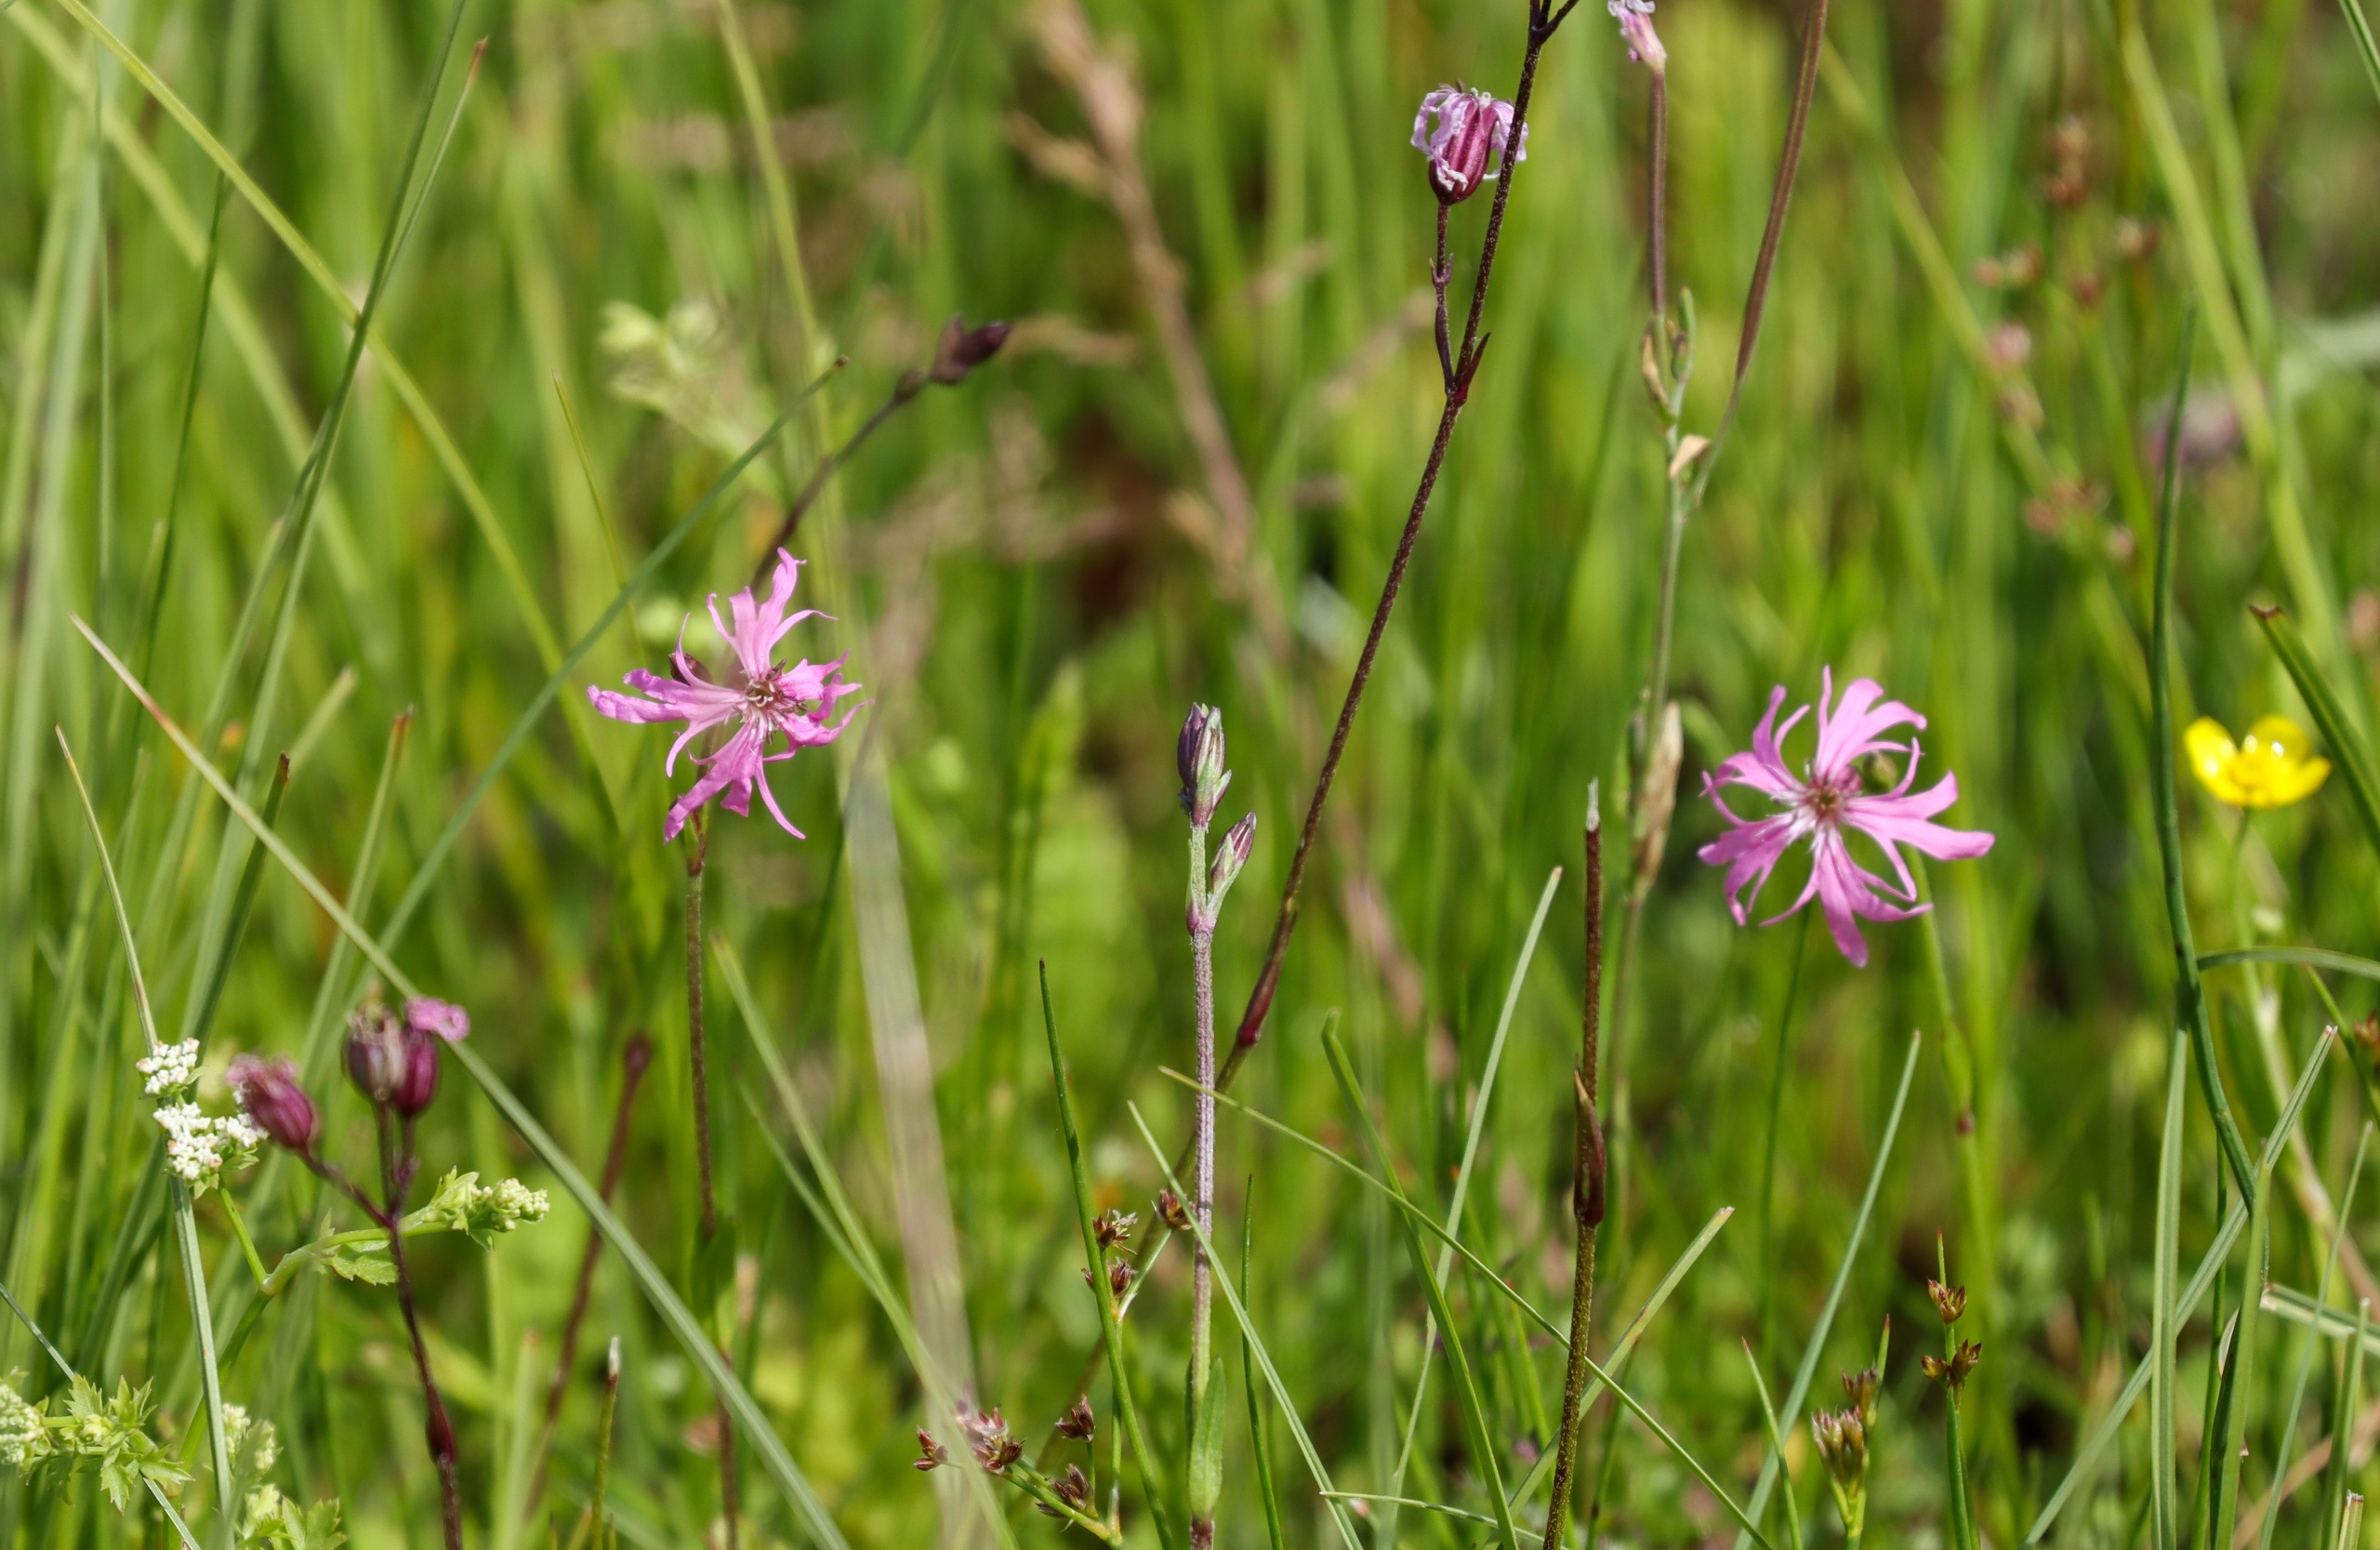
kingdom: Plantae
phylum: Tracheophyta
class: Magnoliopsida
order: Caryophyllales
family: Caryophyllaceae
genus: Silene
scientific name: Silene flos-cuculi
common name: Trævlekrone
